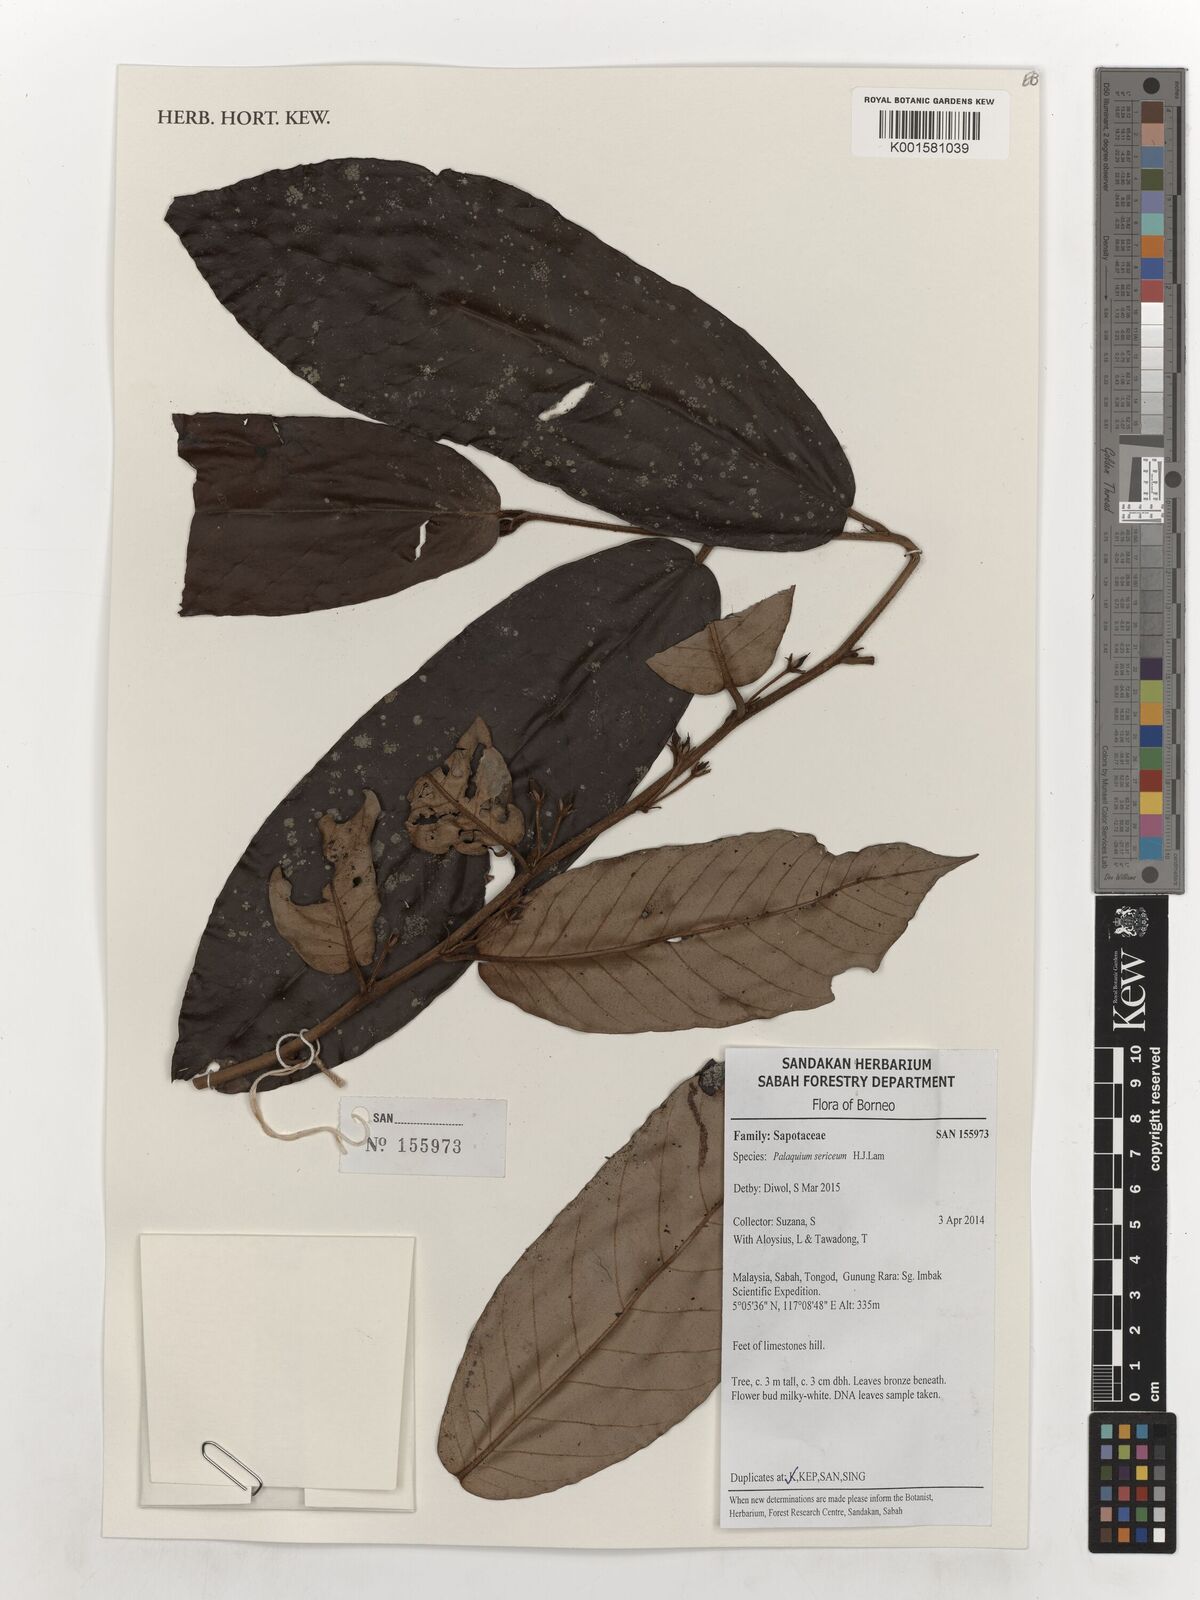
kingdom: Plantae
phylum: Tracheophyta
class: Magnoliopsida
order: Ericales
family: Sapotaceae
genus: Palaquium
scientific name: Palaquium sericeum
